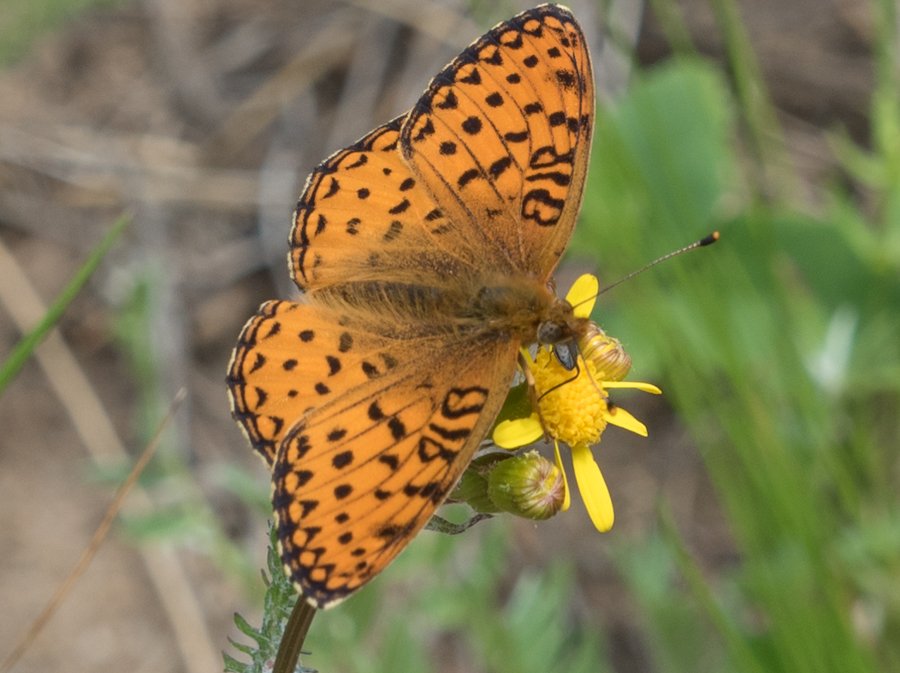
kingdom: Animalia
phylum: Arthropoda
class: Insecta
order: Lepidoptera
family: Nymphalidae
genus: Speyeria
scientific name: Speyeria atlantis
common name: Northwestern Fritillary
